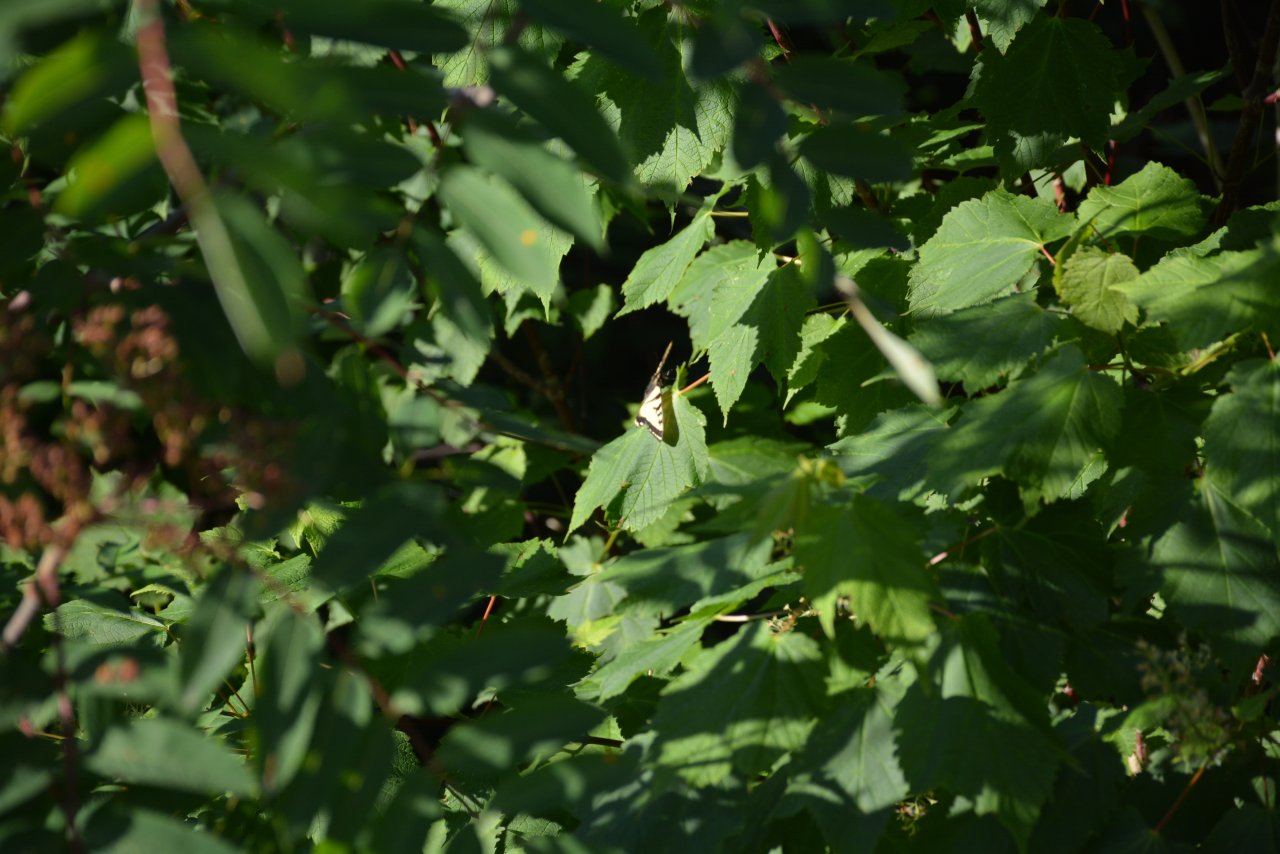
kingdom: Animalia
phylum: Arthropoda
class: Insecta
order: Lepidoptera
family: Papilionidae
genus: Pterourus
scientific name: Pterourus canadensis
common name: Canadian Tiger Swallowtail
